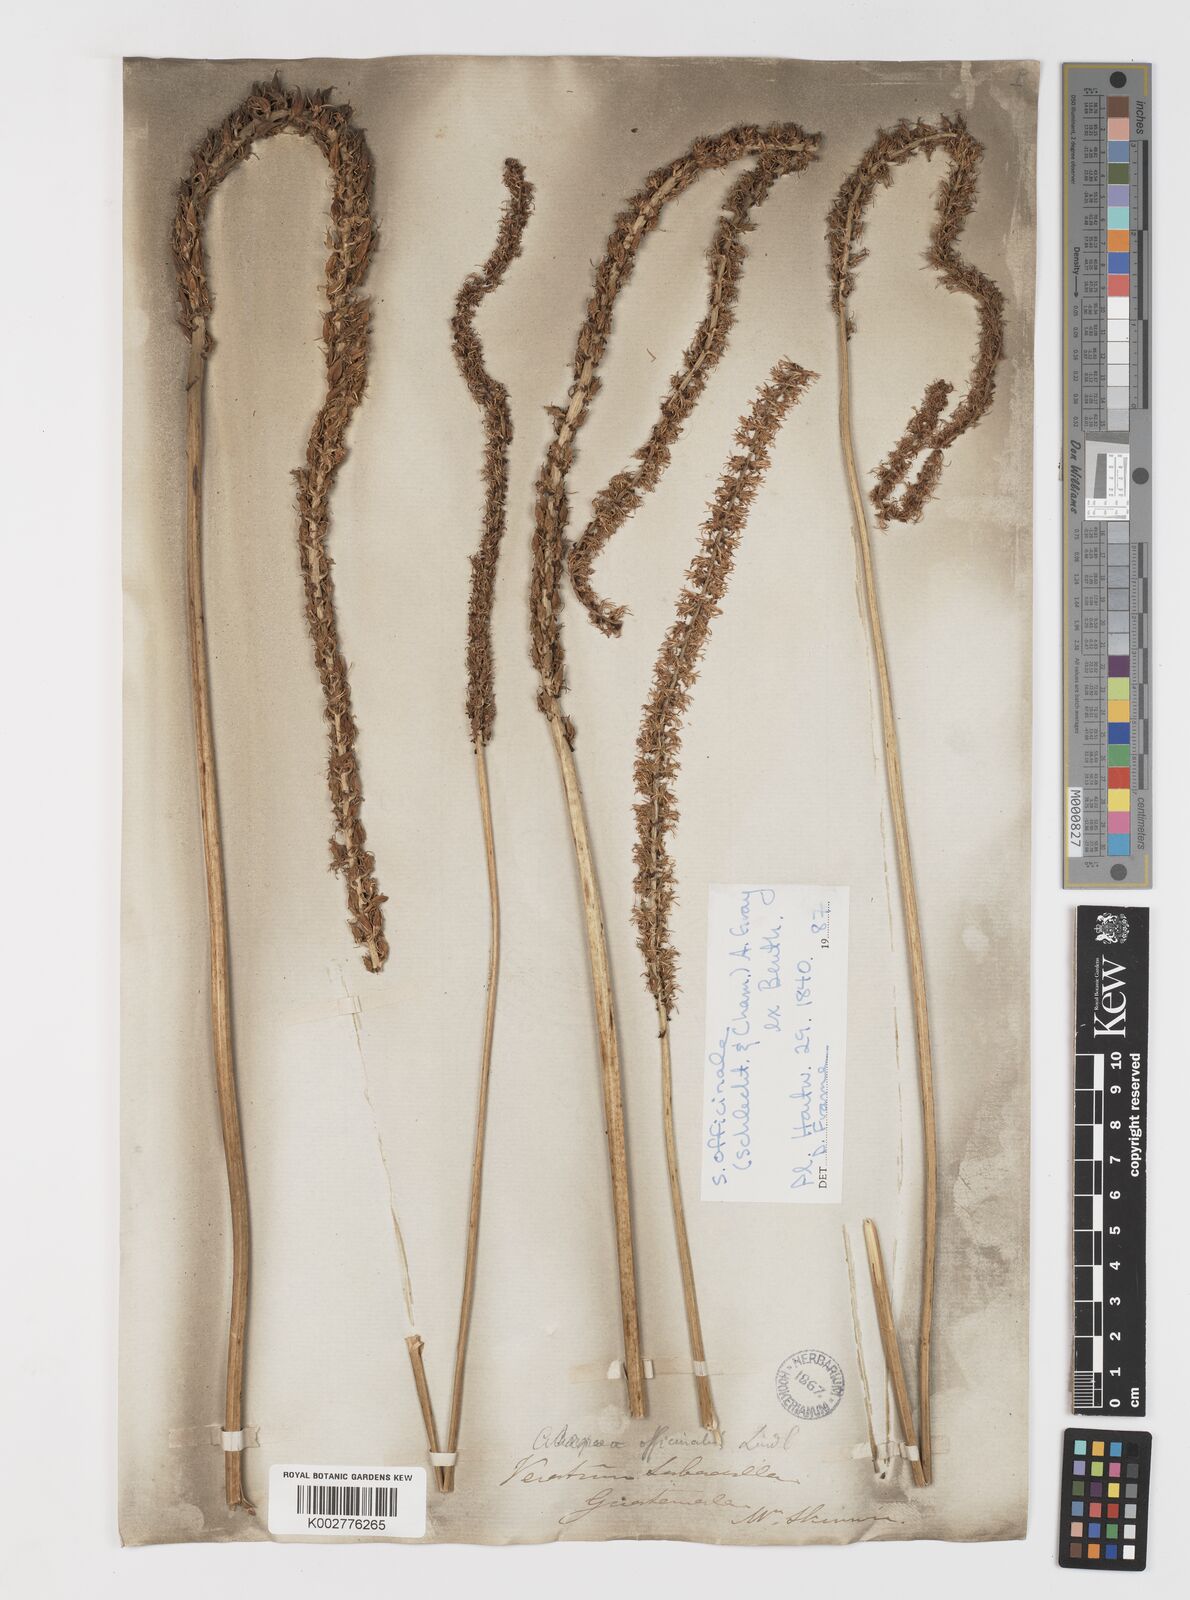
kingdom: Plantae
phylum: Tracheophyta
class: Liliopsida
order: Liliales
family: Melanthiaceae
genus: Schoenocaulon
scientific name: Schoenocaulon officinale
